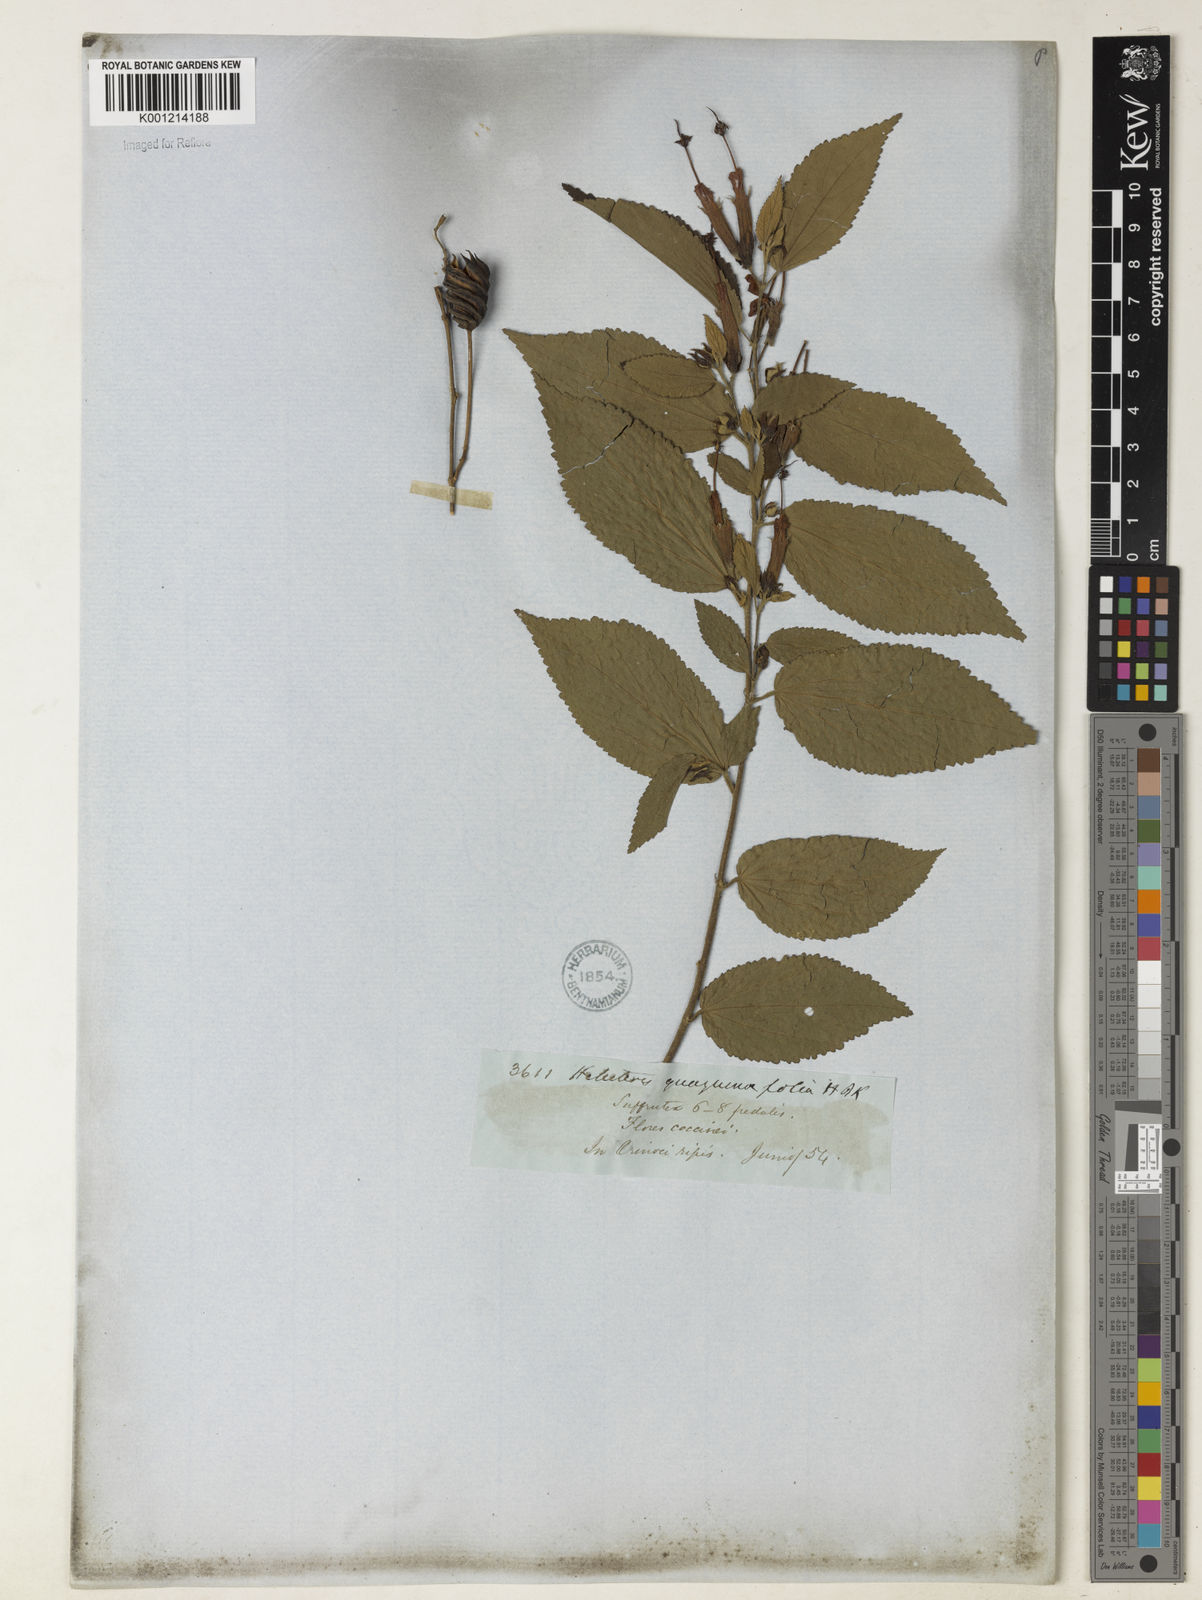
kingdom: Plantae
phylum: Tracheophyta
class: Magnoliopsida
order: Malvales
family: Malvaceae
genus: Helicteres
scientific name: Helicteres guazumifolia
